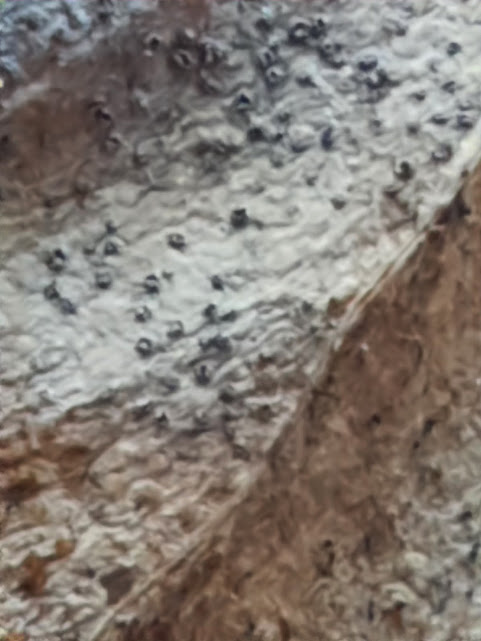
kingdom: Fungi
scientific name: Fungi
